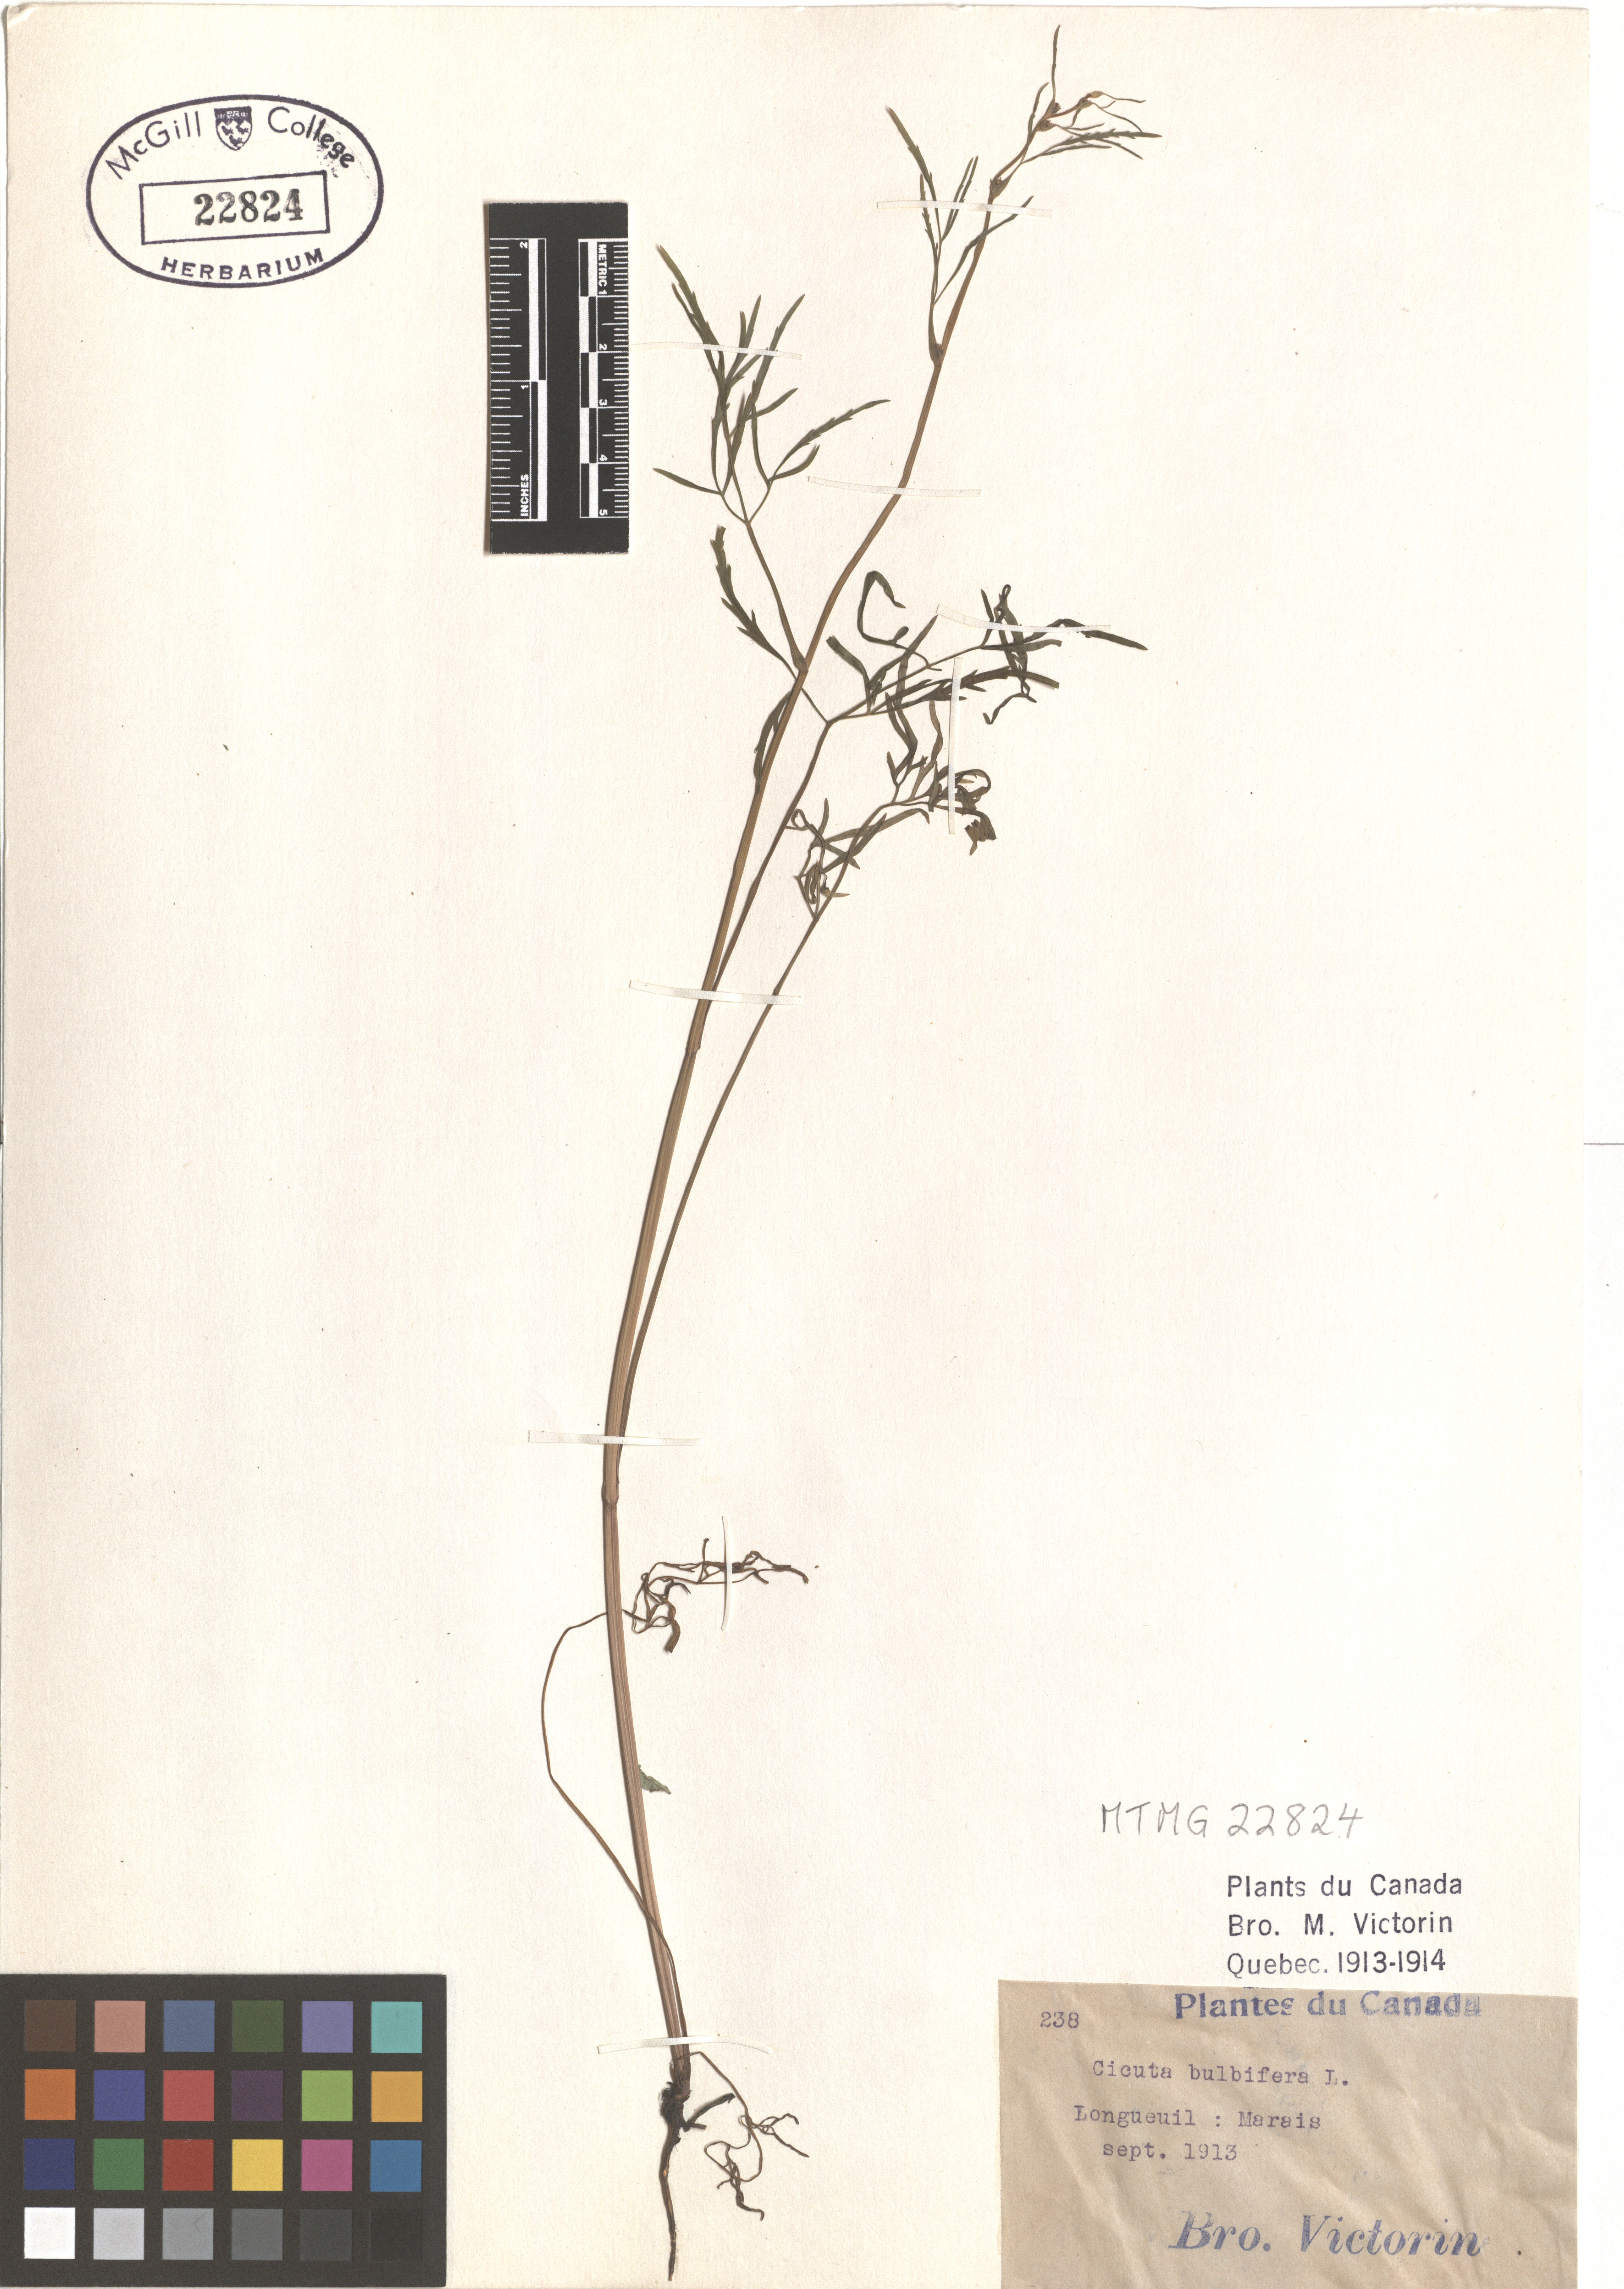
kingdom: Plantae
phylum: Tracheophyta
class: Magnoliopsida
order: Apiales
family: Apiaceae
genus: Cicuta
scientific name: Cicuta bulbifera
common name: Bulb-bearing water-hemlock
